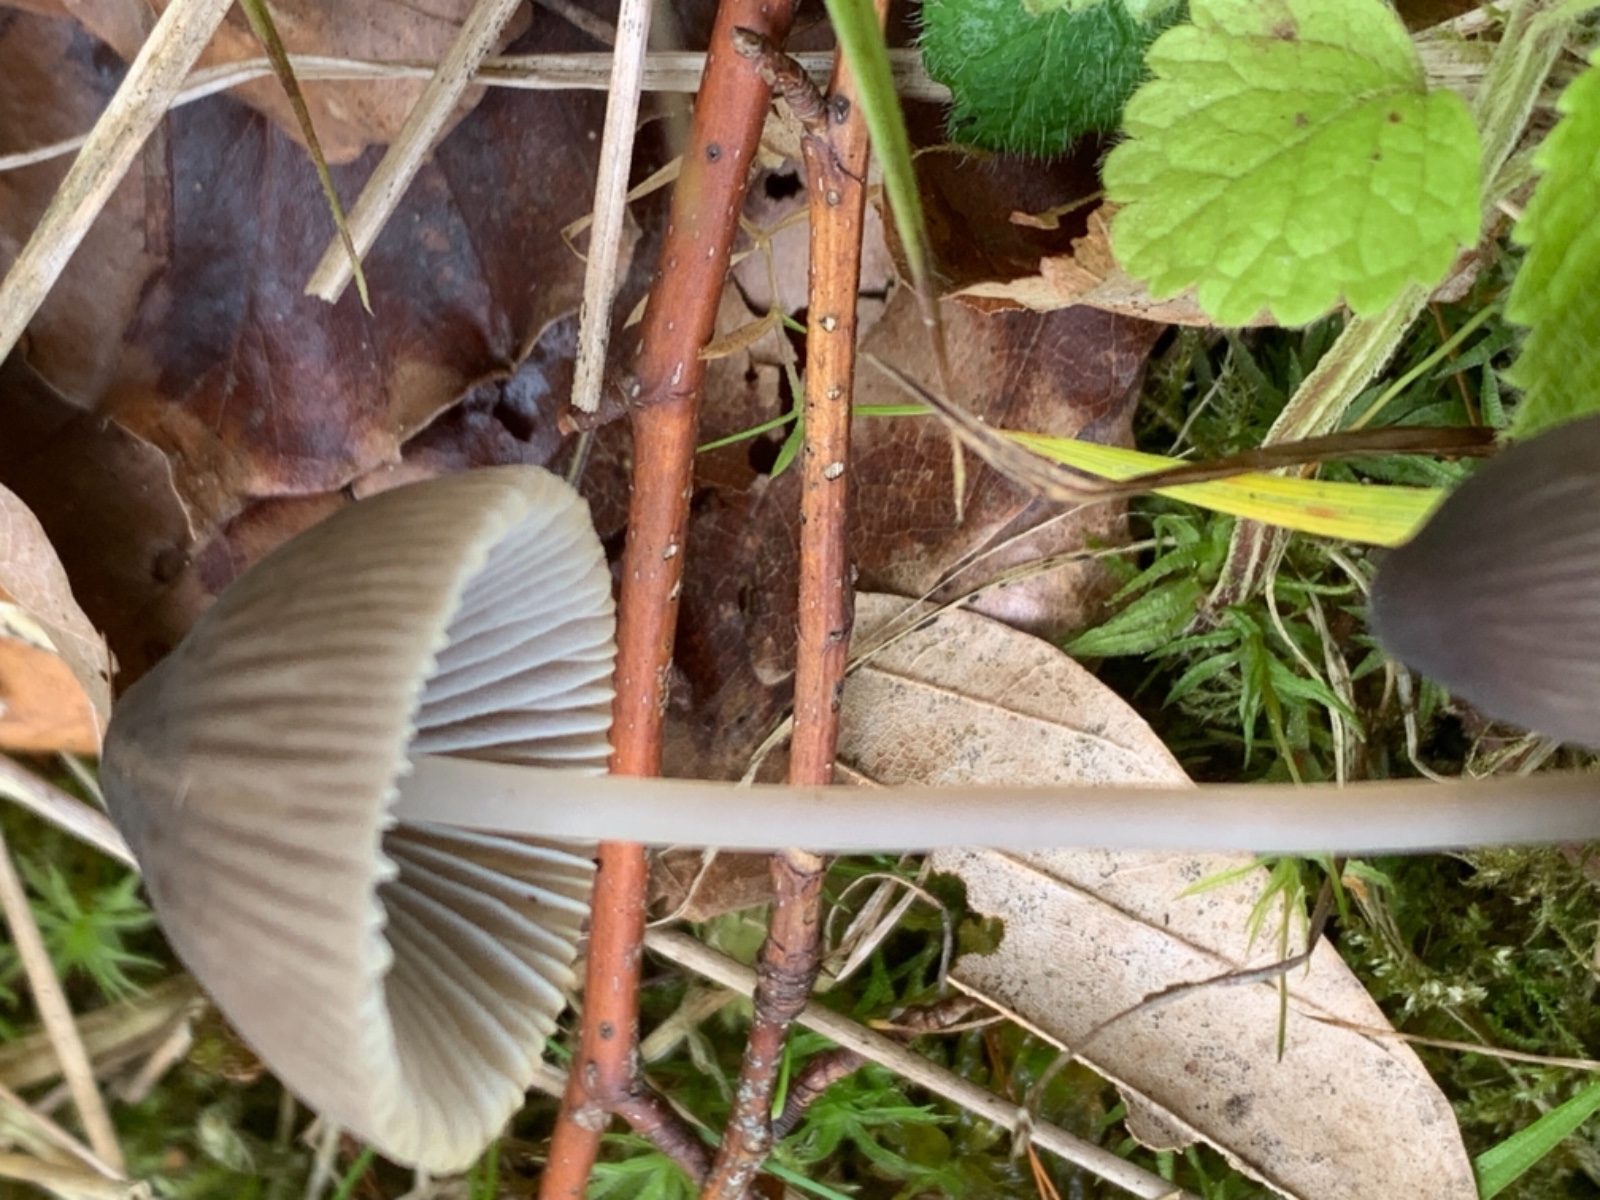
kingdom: Fungi
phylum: Basidiomycota
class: Agaricomycetes
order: Agaricales
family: Mycenaceae
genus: Mycena
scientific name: Mycena
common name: huesvamp
